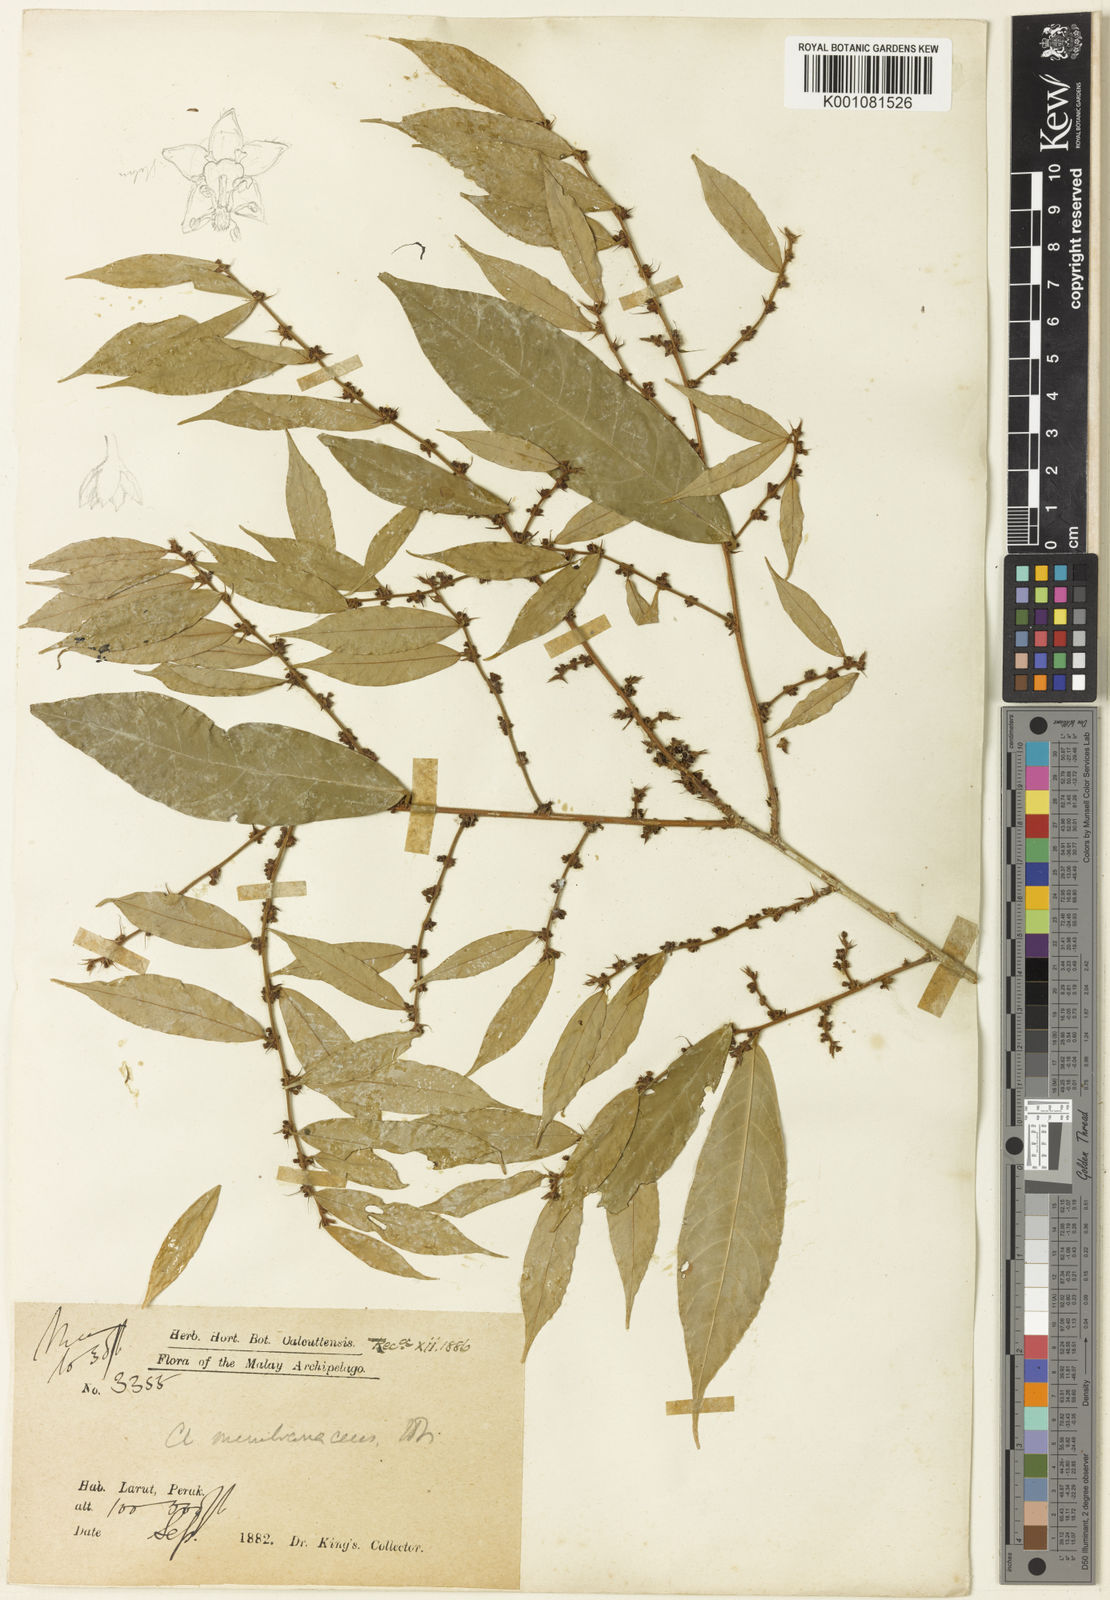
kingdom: Plantae
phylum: Tracheophyta
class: Magnoliopsida
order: Malpighiales
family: Phyllanthaceae
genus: Cleistanthus
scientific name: Cleistanthus membranaceus
